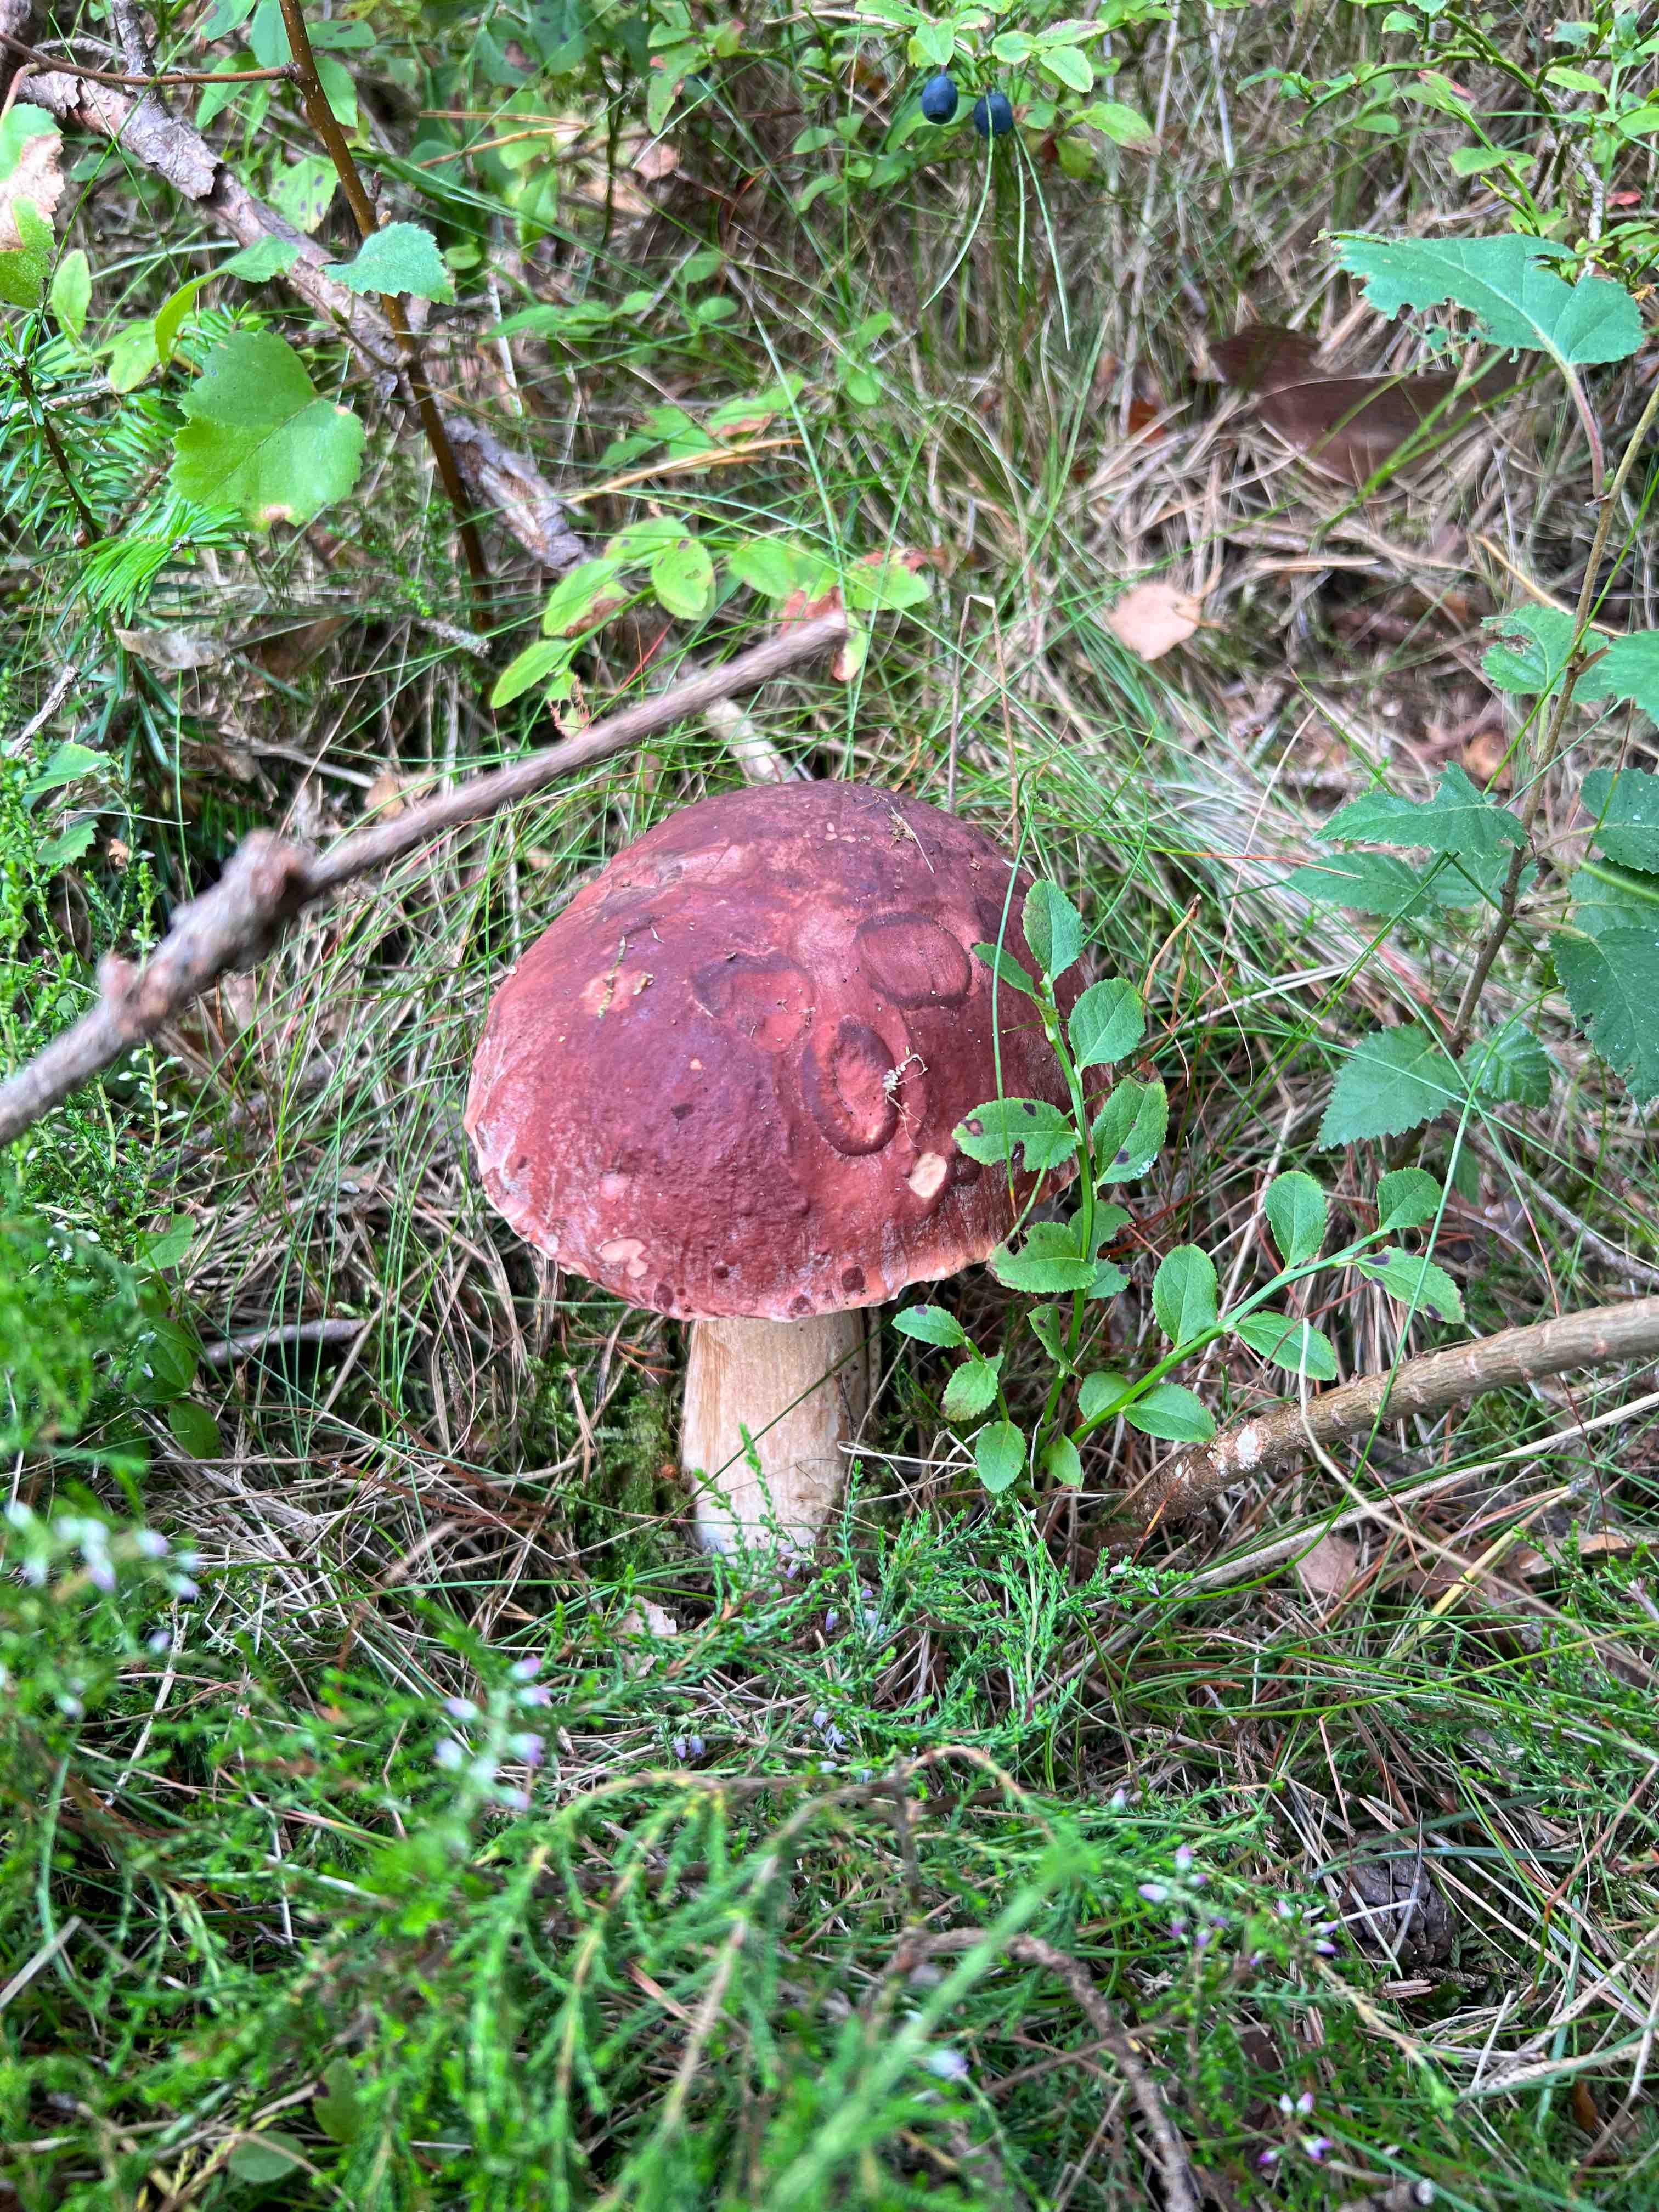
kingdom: Fungi
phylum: Basidiomycota
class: Agaricomycetes
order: Boletales
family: Boletaceae
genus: Boletus
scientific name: Boletus pinophilus
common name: rødbrun rørhat
